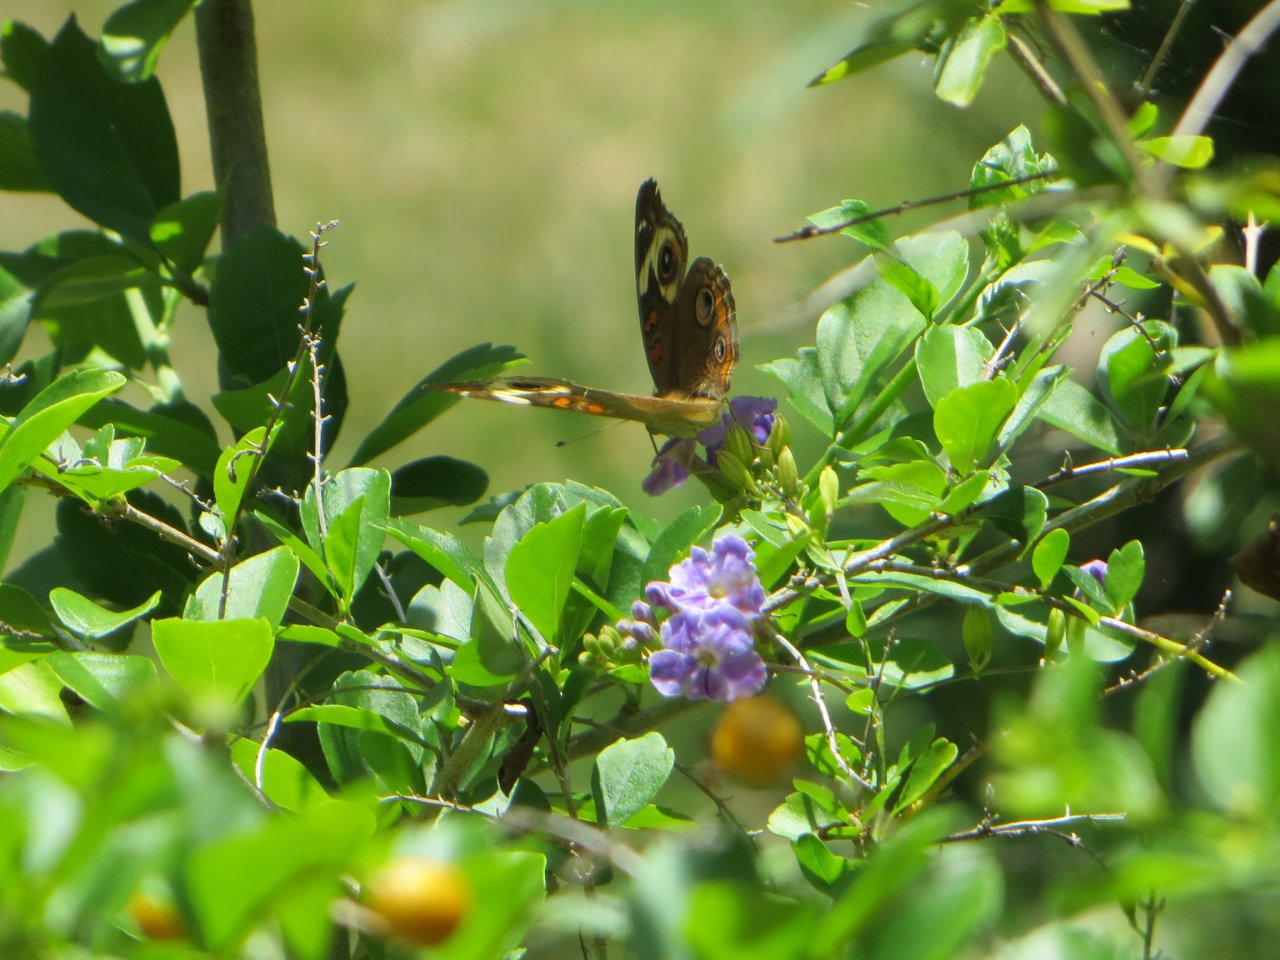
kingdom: Animalia
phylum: Arthropoda
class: Insecta
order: Lepidoptera
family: Nymphalidae
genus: Junonia
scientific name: Junonia coenia
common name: Common Buckeye
